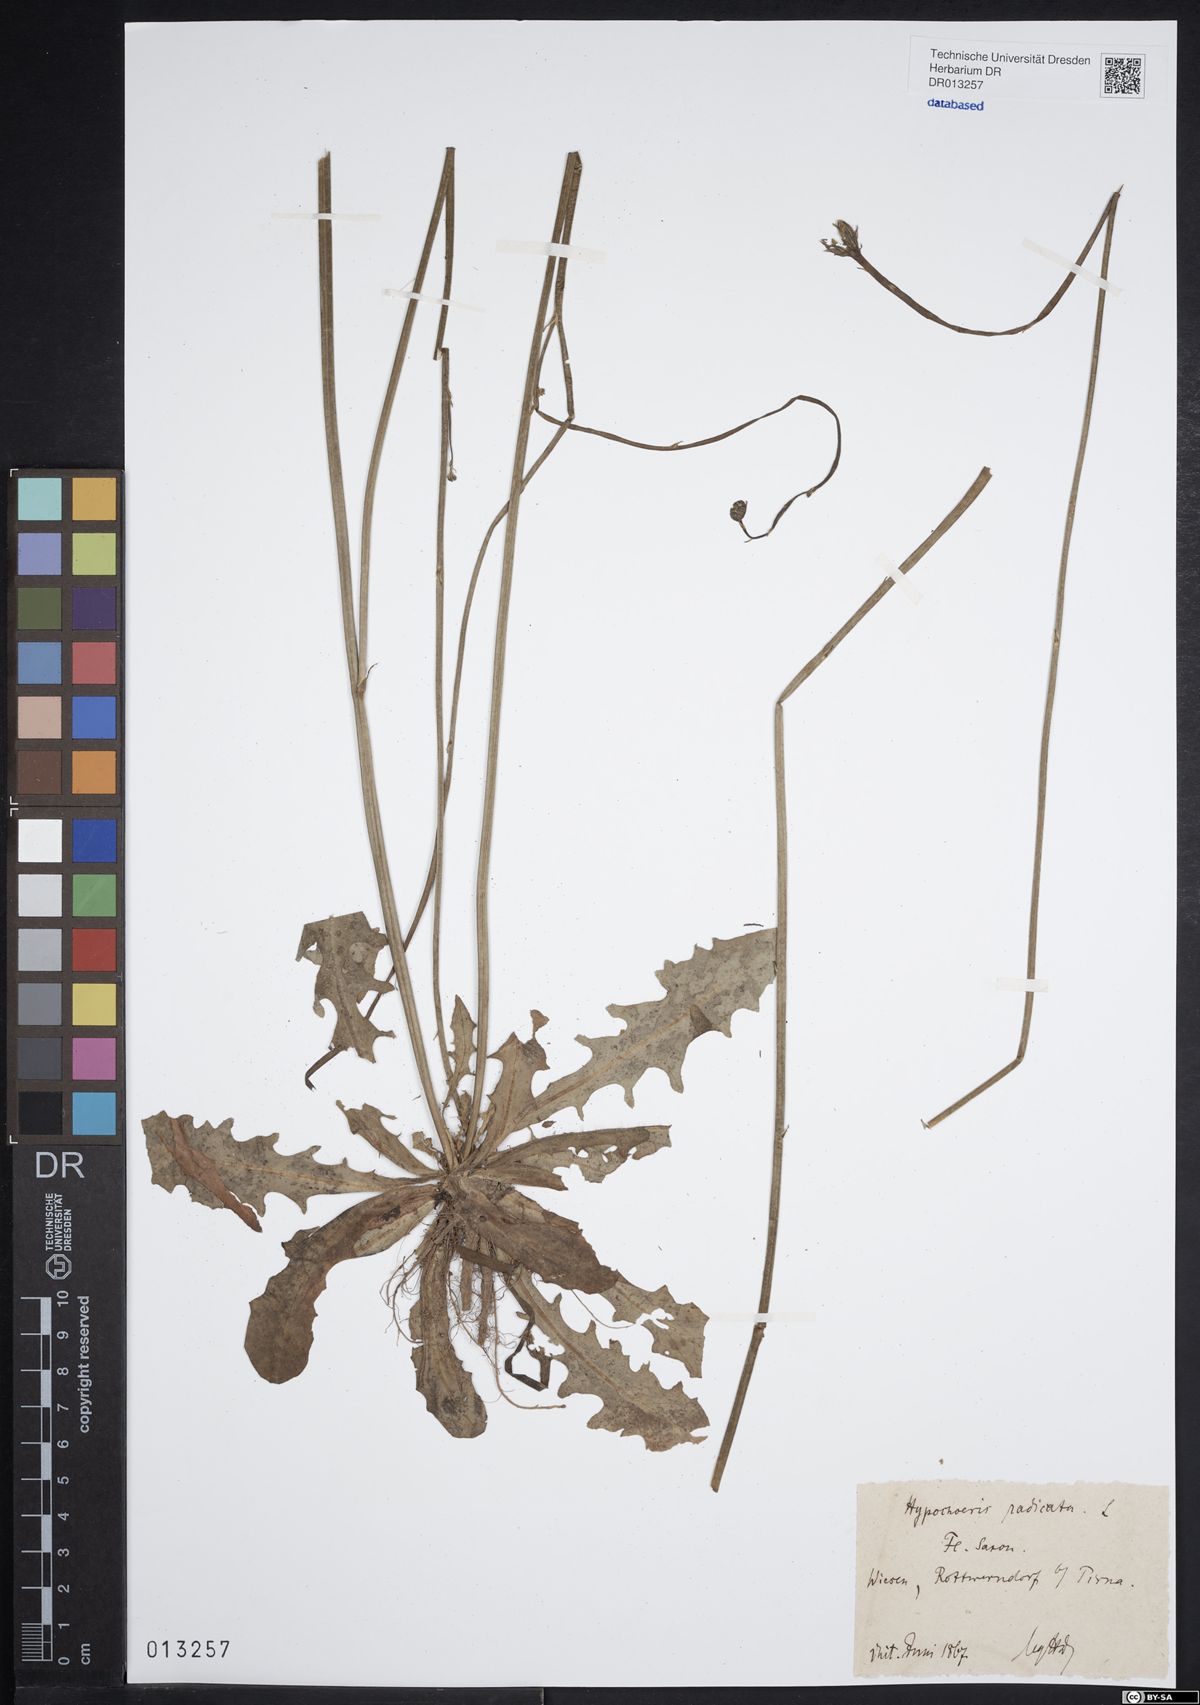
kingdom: Plantae
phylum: Tracheophyta
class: Magnoliopsida
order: Asterales
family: Asteraceae
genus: Hypochaeris
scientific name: Hypochaeris radicata
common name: Flatweed
